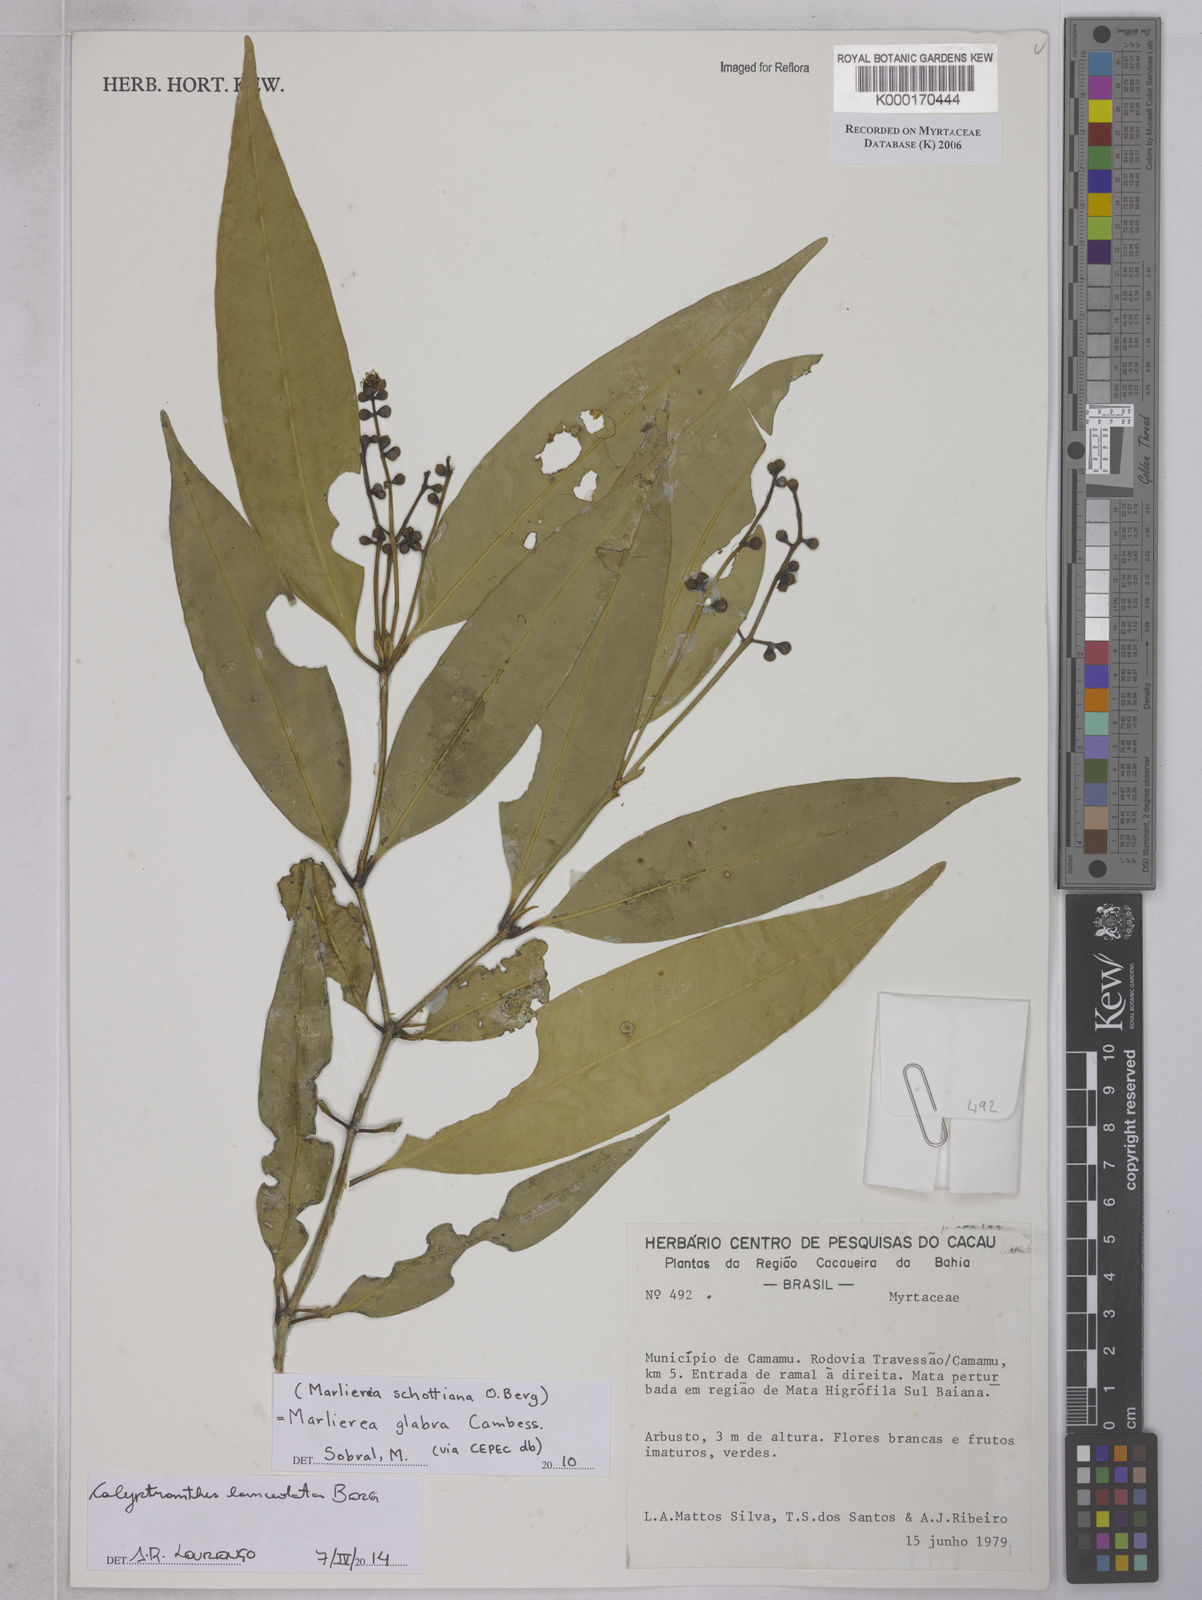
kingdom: Plantae
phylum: Tracheophyta
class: Magnoliopsida
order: Myrtales
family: Myrtaceae
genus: Calyptranthes
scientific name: Calyptranthes
